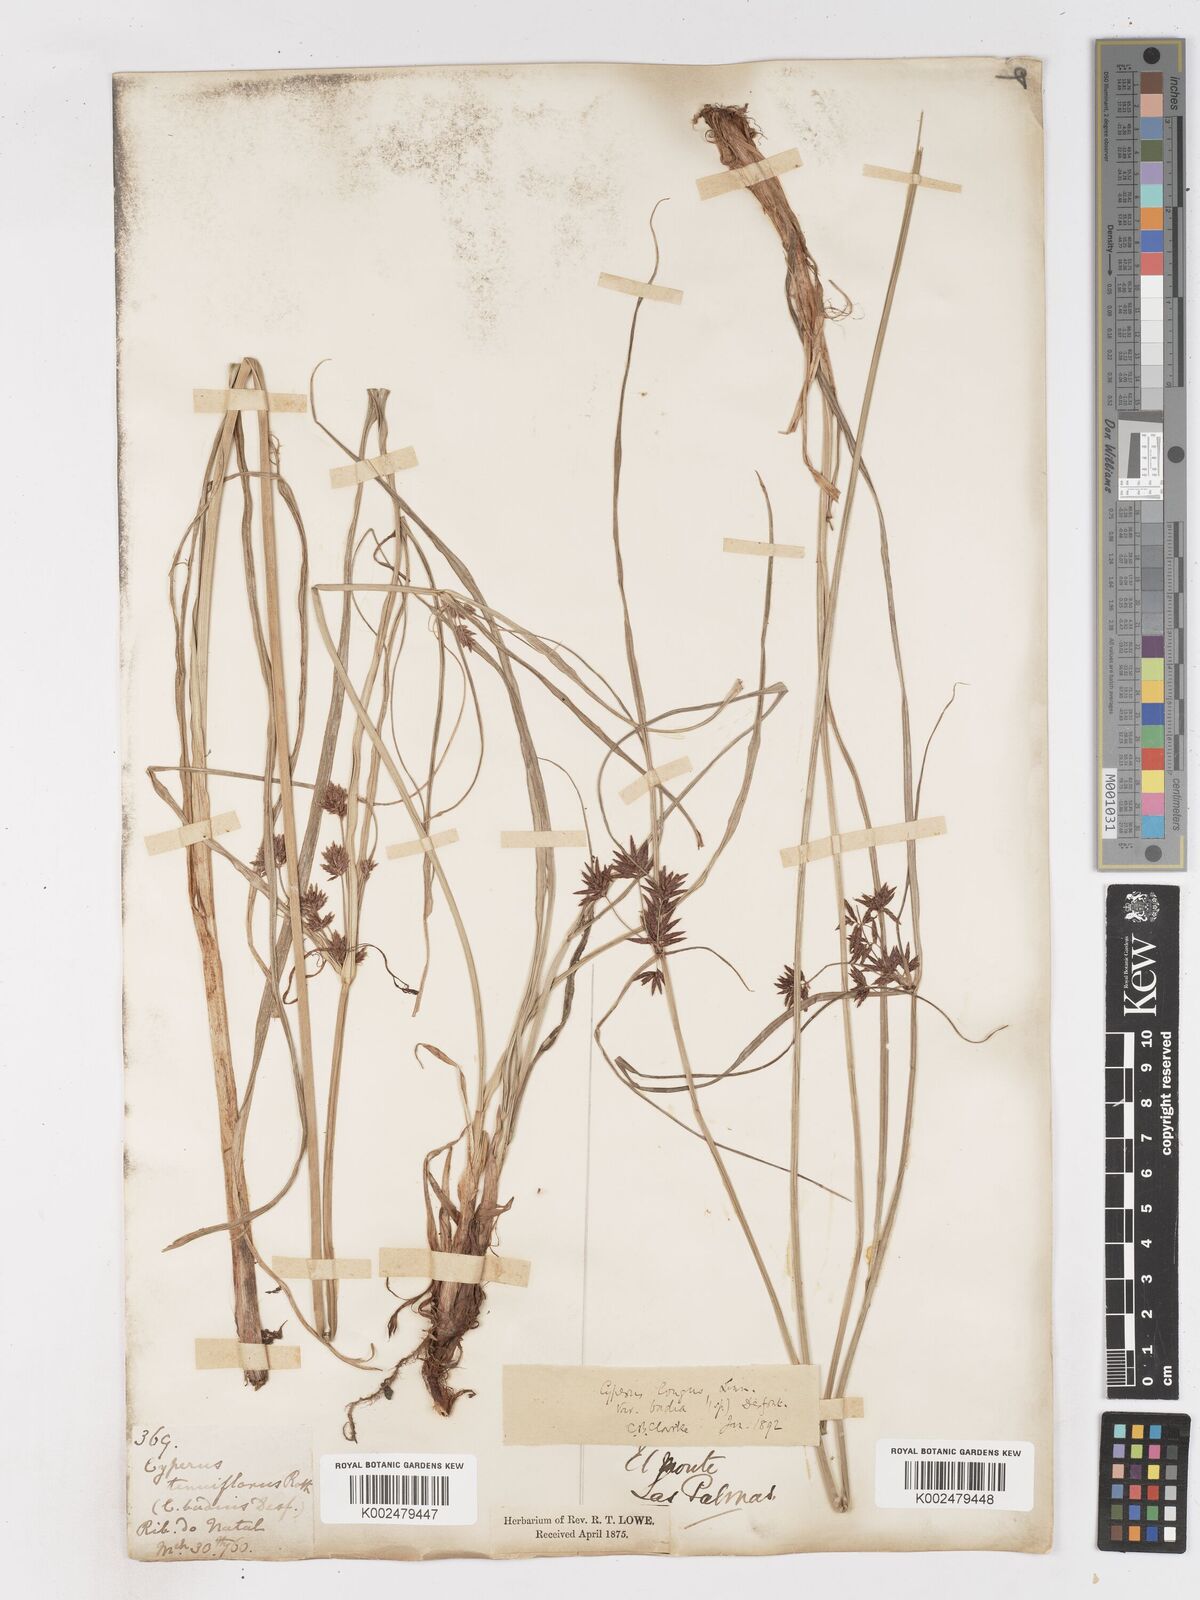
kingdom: Plantae
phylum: Tracheophyta
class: Liliopsida
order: Poales
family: Cyperaceae
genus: Cyperus
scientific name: Cyperus longus
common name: Galingale
